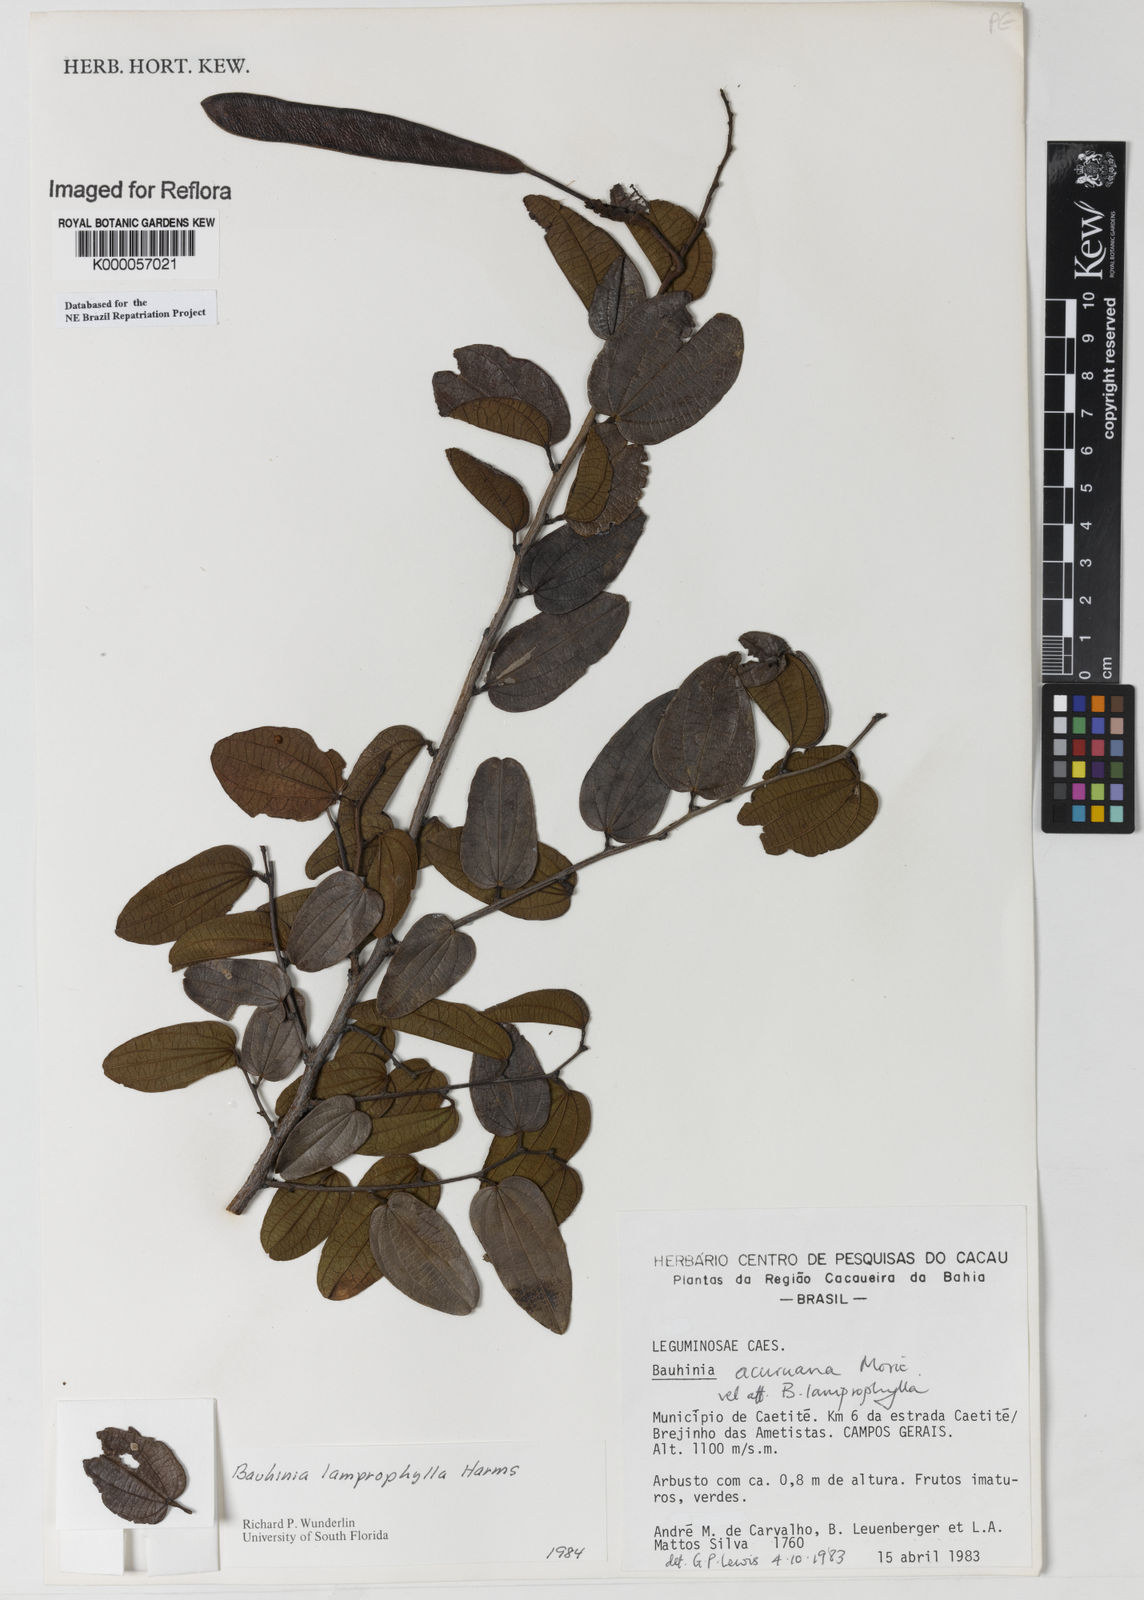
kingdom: Plantae
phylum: Tracheophyta
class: Magnoliopsida
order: Fabales
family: Fabaceae
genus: Bauhinia
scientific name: Bauhinia acuruana
